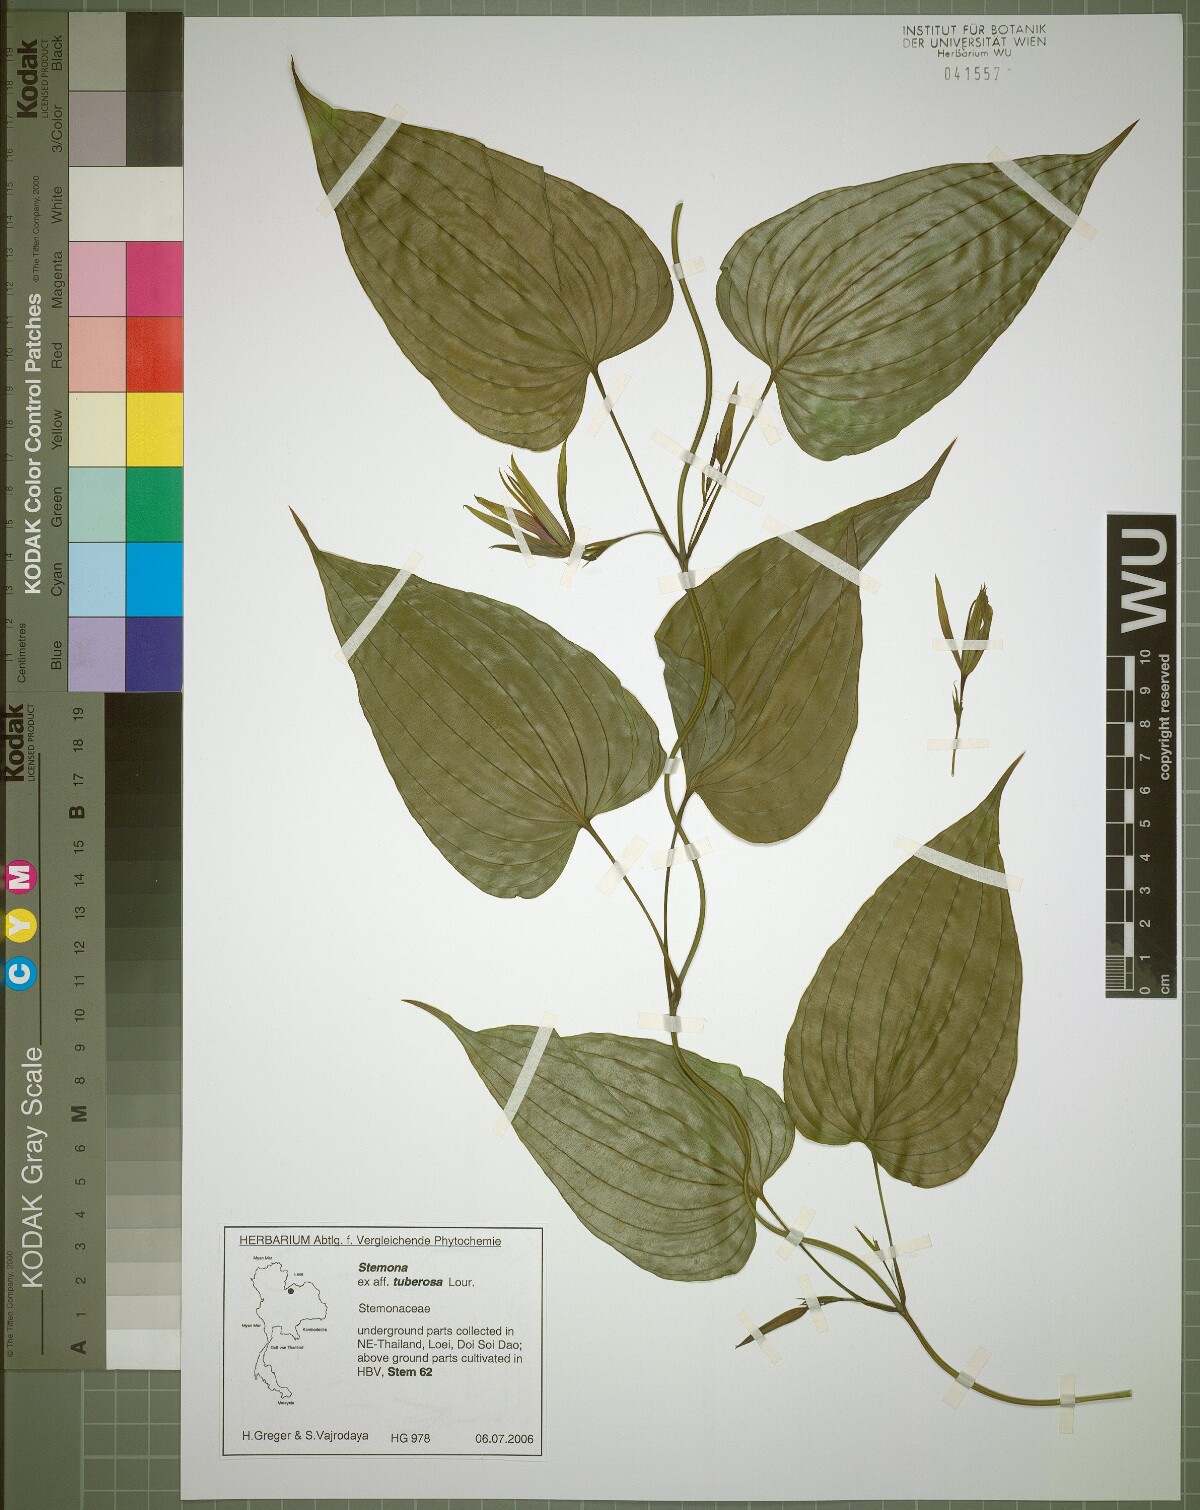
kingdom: Plantae
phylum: Tracheophyta
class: Liliopsida
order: Pandanales
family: Stemonaceae
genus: Stemona
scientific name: Stemona tuberosa
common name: Stemona
